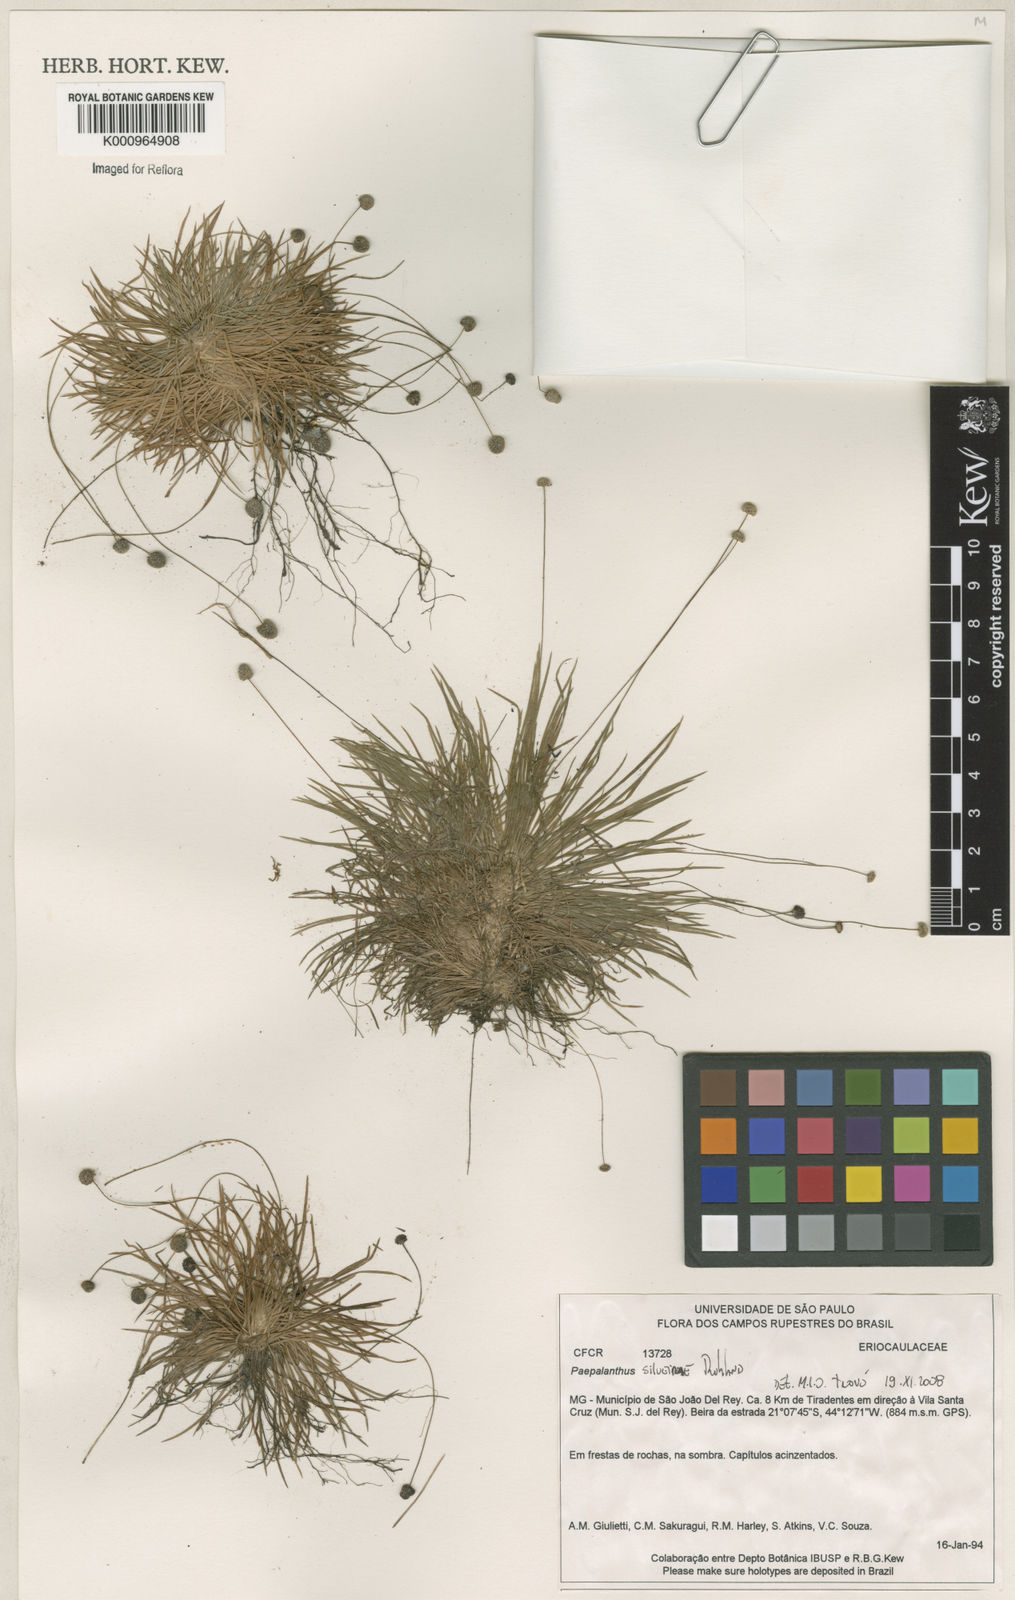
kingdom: Plantae
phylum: Tracheophyta
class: Liliopsida
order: Poales
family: Eriocaulaceae
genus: Paepalanthus
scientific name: Paepalanthus silveirae
